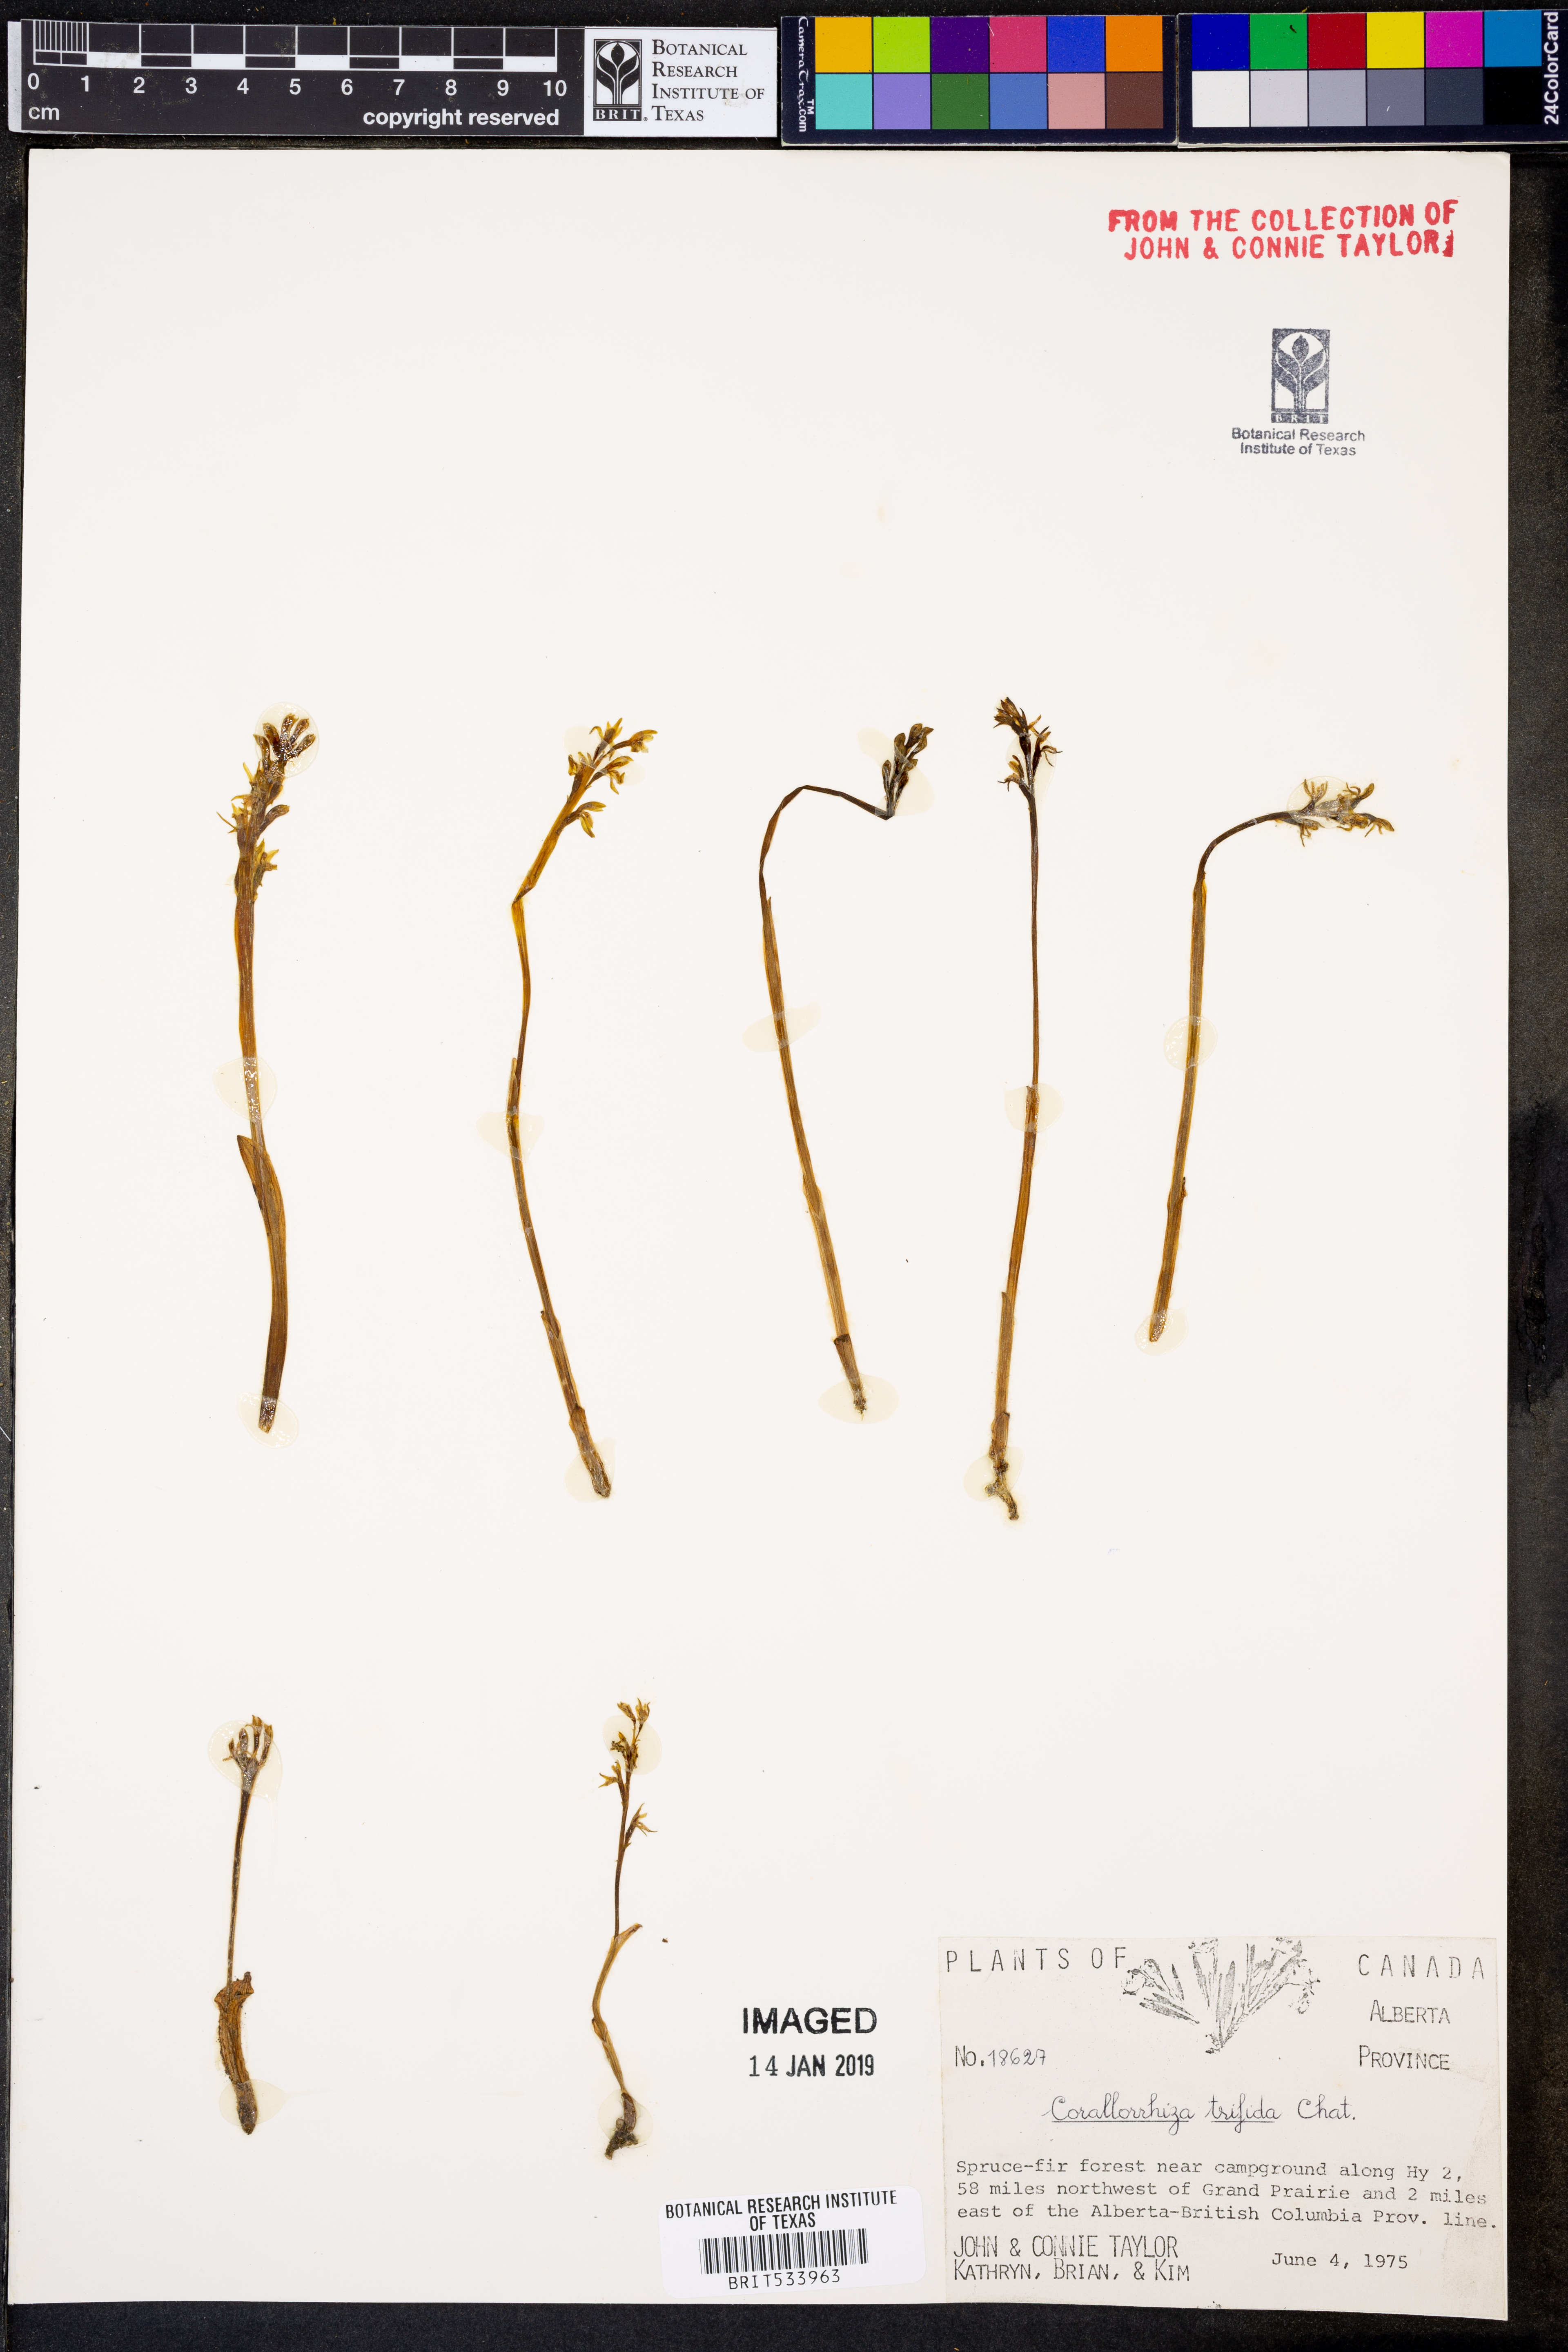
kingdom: Plantae
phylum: Tracheophyta
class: Liliopsida
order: Asparagales
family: Orchidaceae
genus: Corallorhiza
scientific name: Corallorhiza trifida
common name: Yellow coralroot
